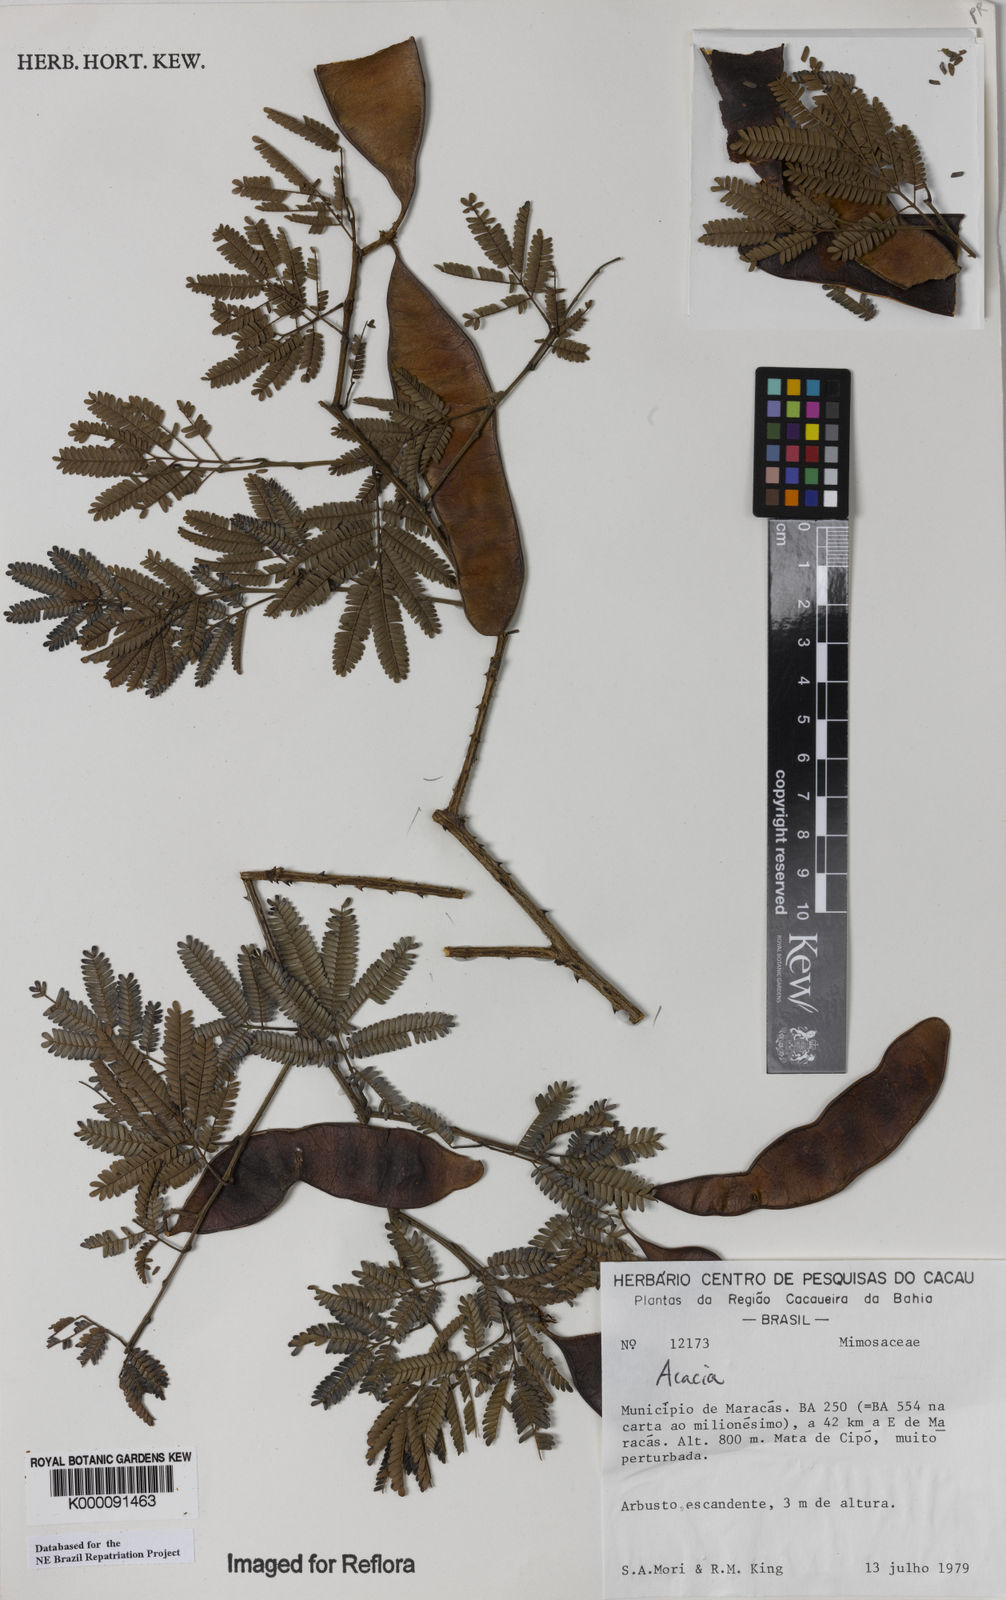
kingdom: Plantae
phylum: Tracheophyta
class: Magnoliopsida
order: Fabales
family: Fabaceae
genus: Acacia
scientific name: Acacia
